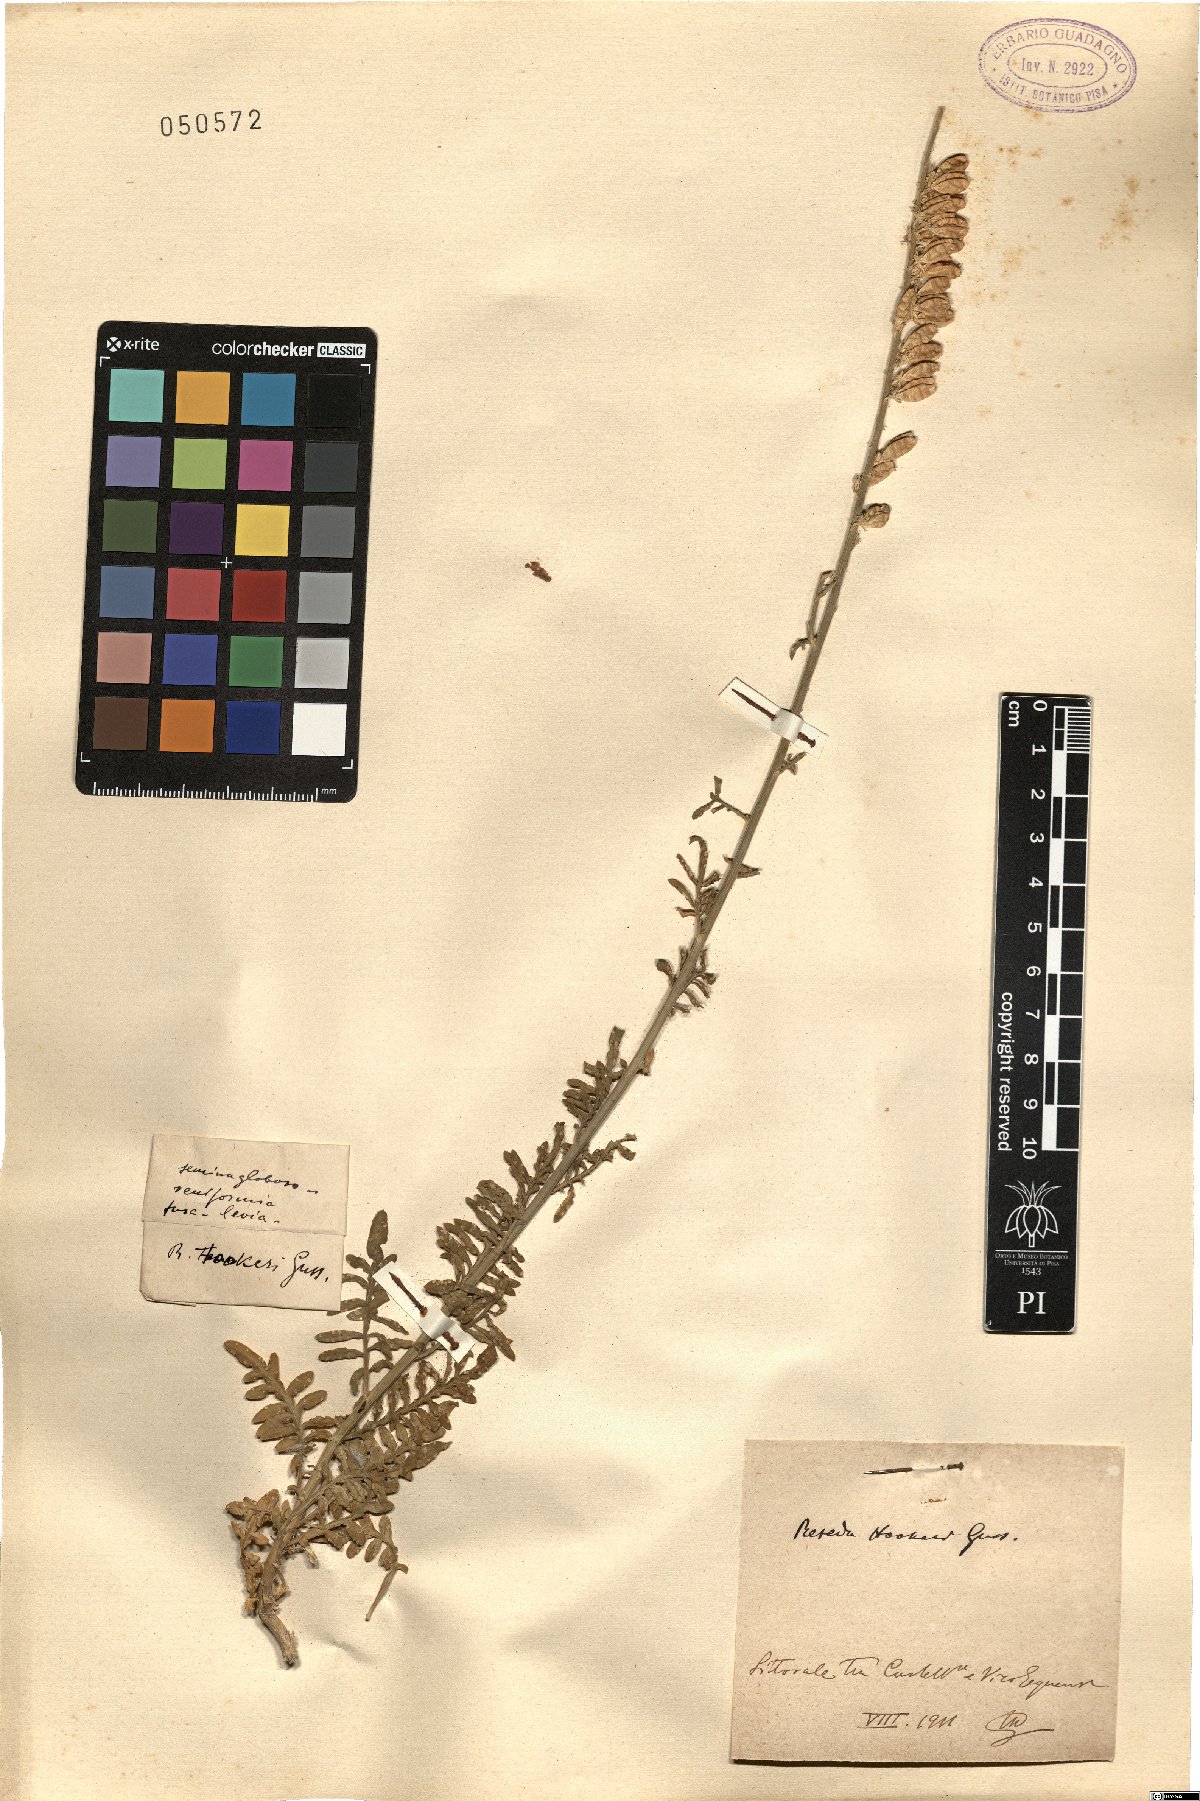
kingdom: Plantae
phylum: Tracheophyta
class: Magnoliopsida
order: Brassicales
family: Resedaceae
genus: Reseda
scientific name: Reseda alba
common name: White mignonette
